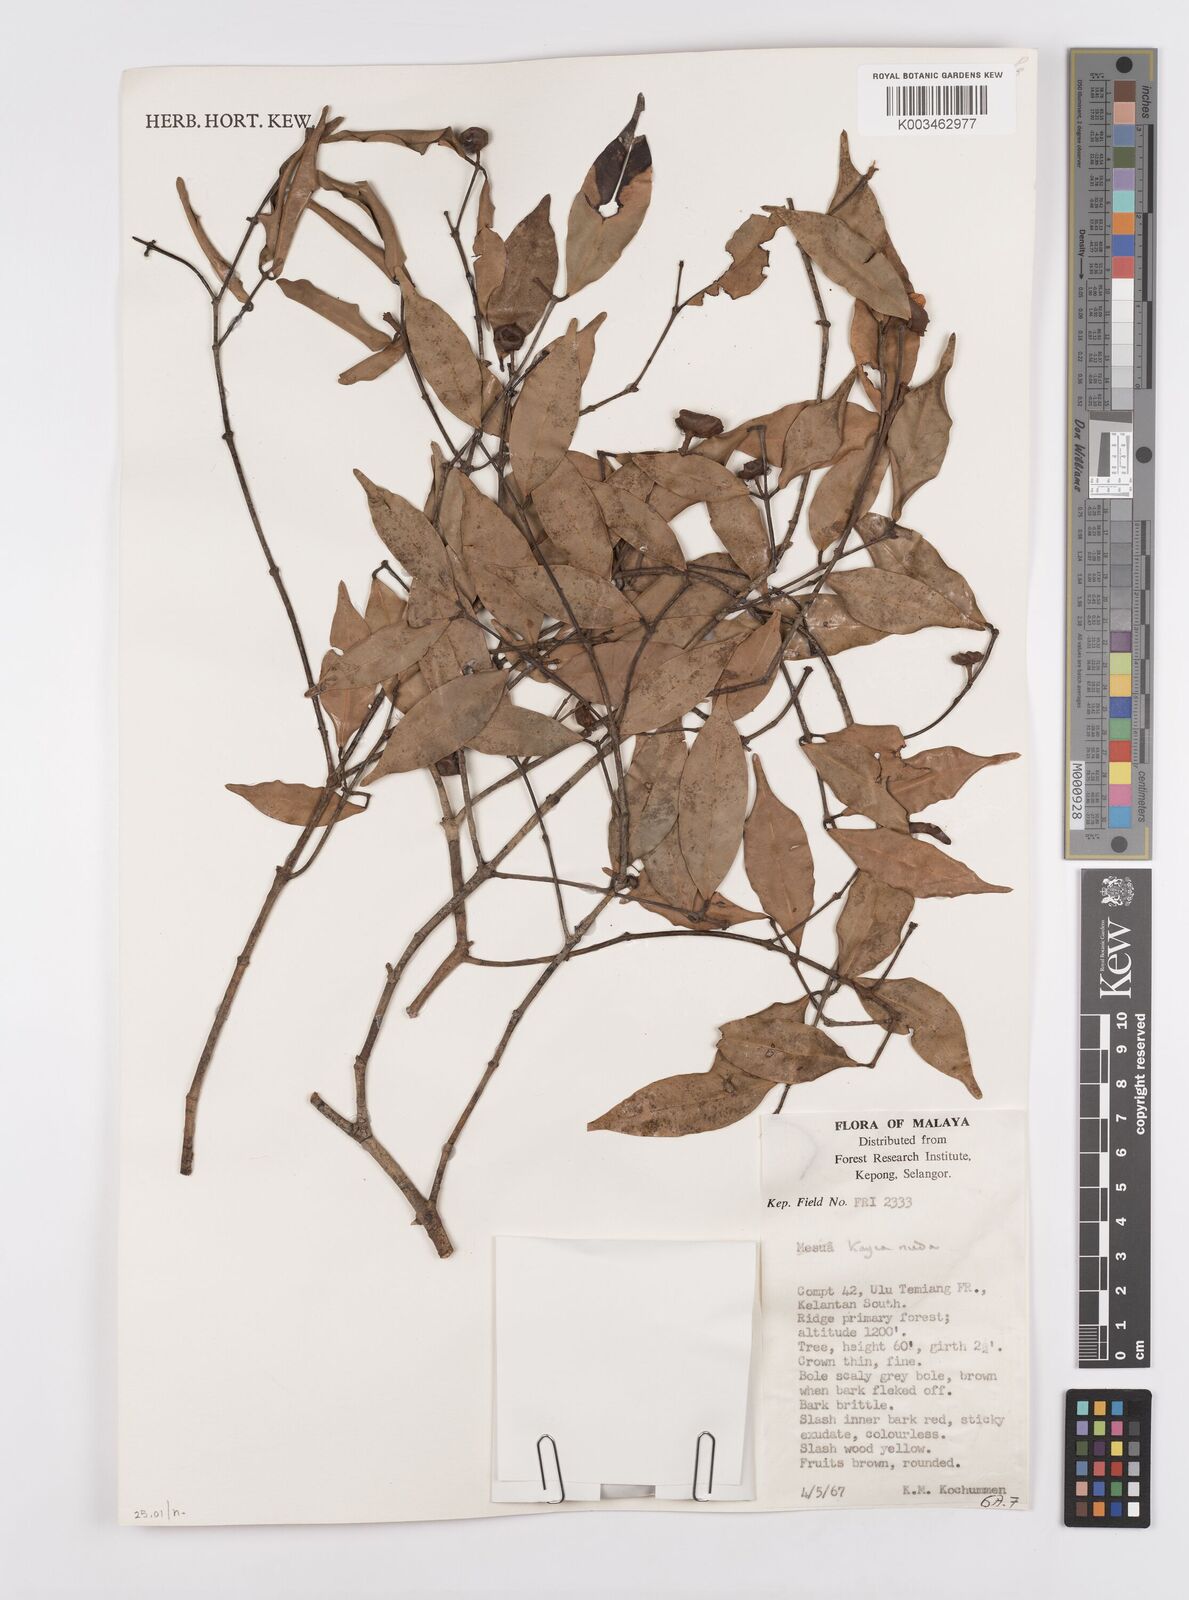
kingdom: Plantae
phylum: Tracheophyta
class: Magnoliopsida
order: Malpighiales
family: Calophyllaceae
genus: Kayea
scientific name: Kayea
